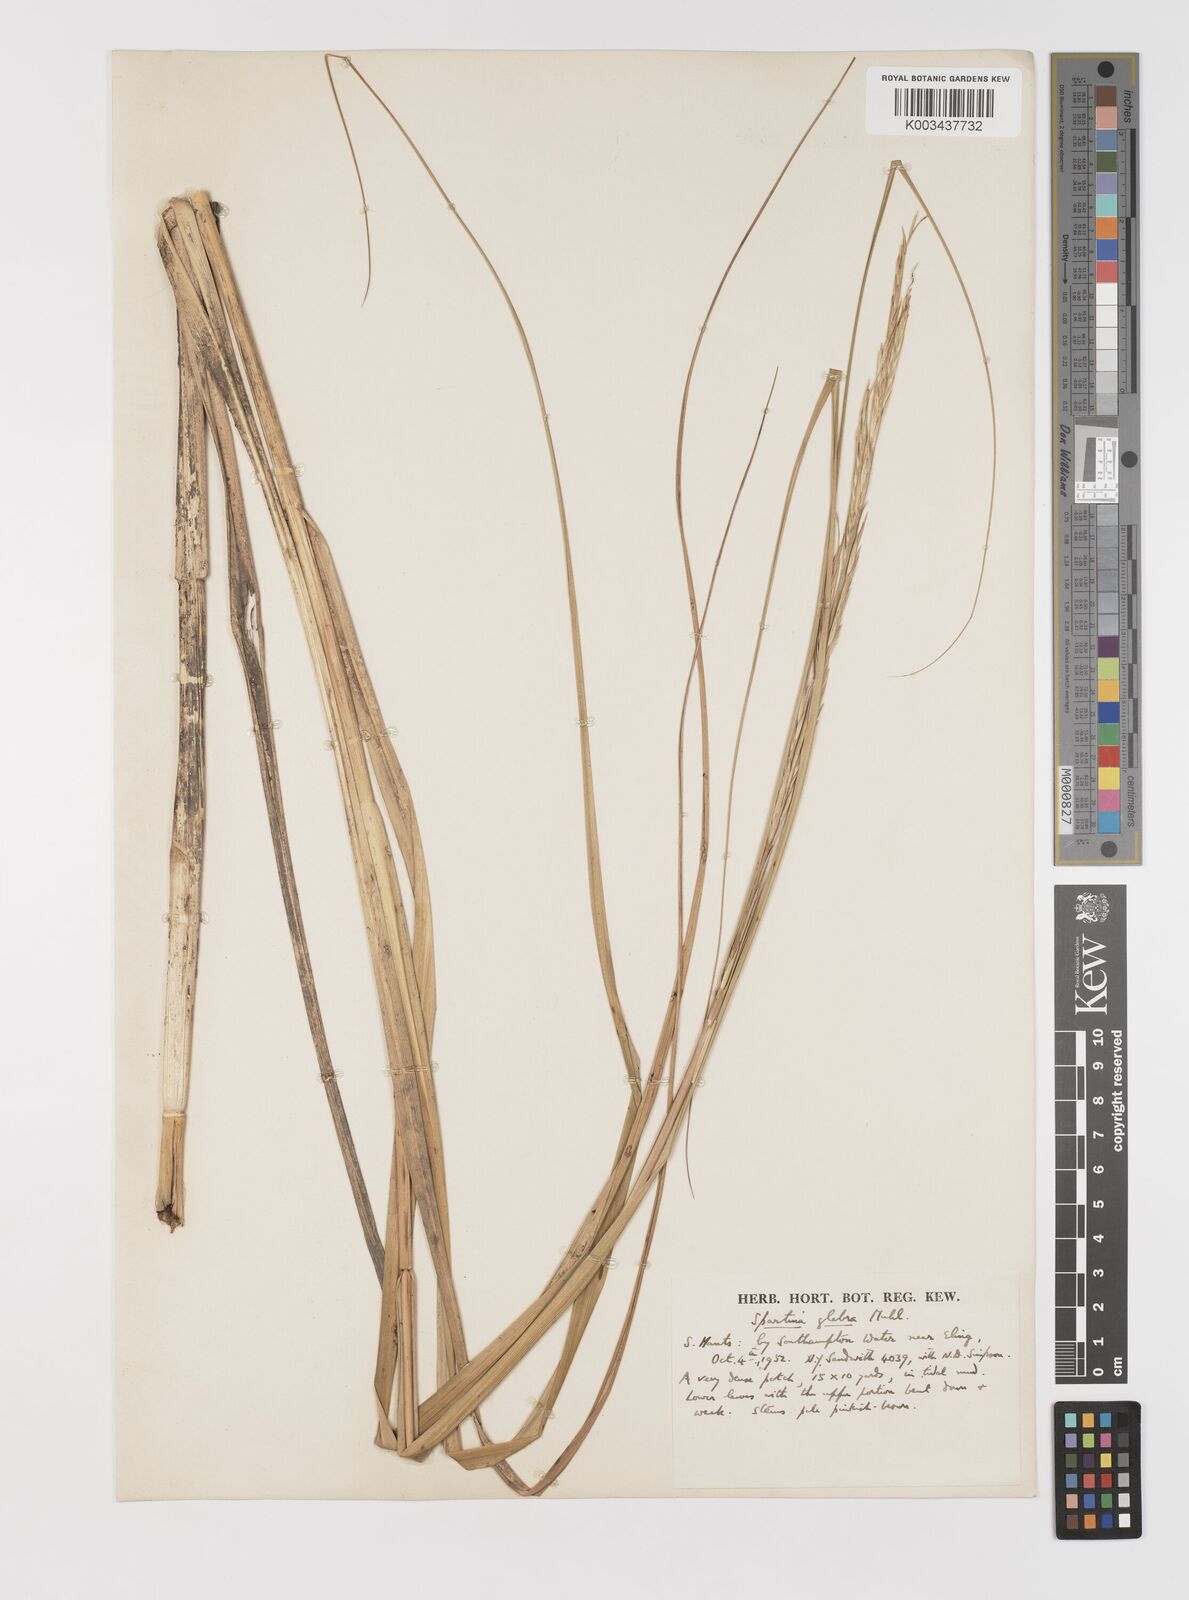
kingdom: Plantae
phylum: Tracheophyta
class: Liliopsida
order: Poales
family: Poaceae
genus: Sporobolus
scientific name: Sporobolus alterniflorus
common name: Atlantic cordgrass
